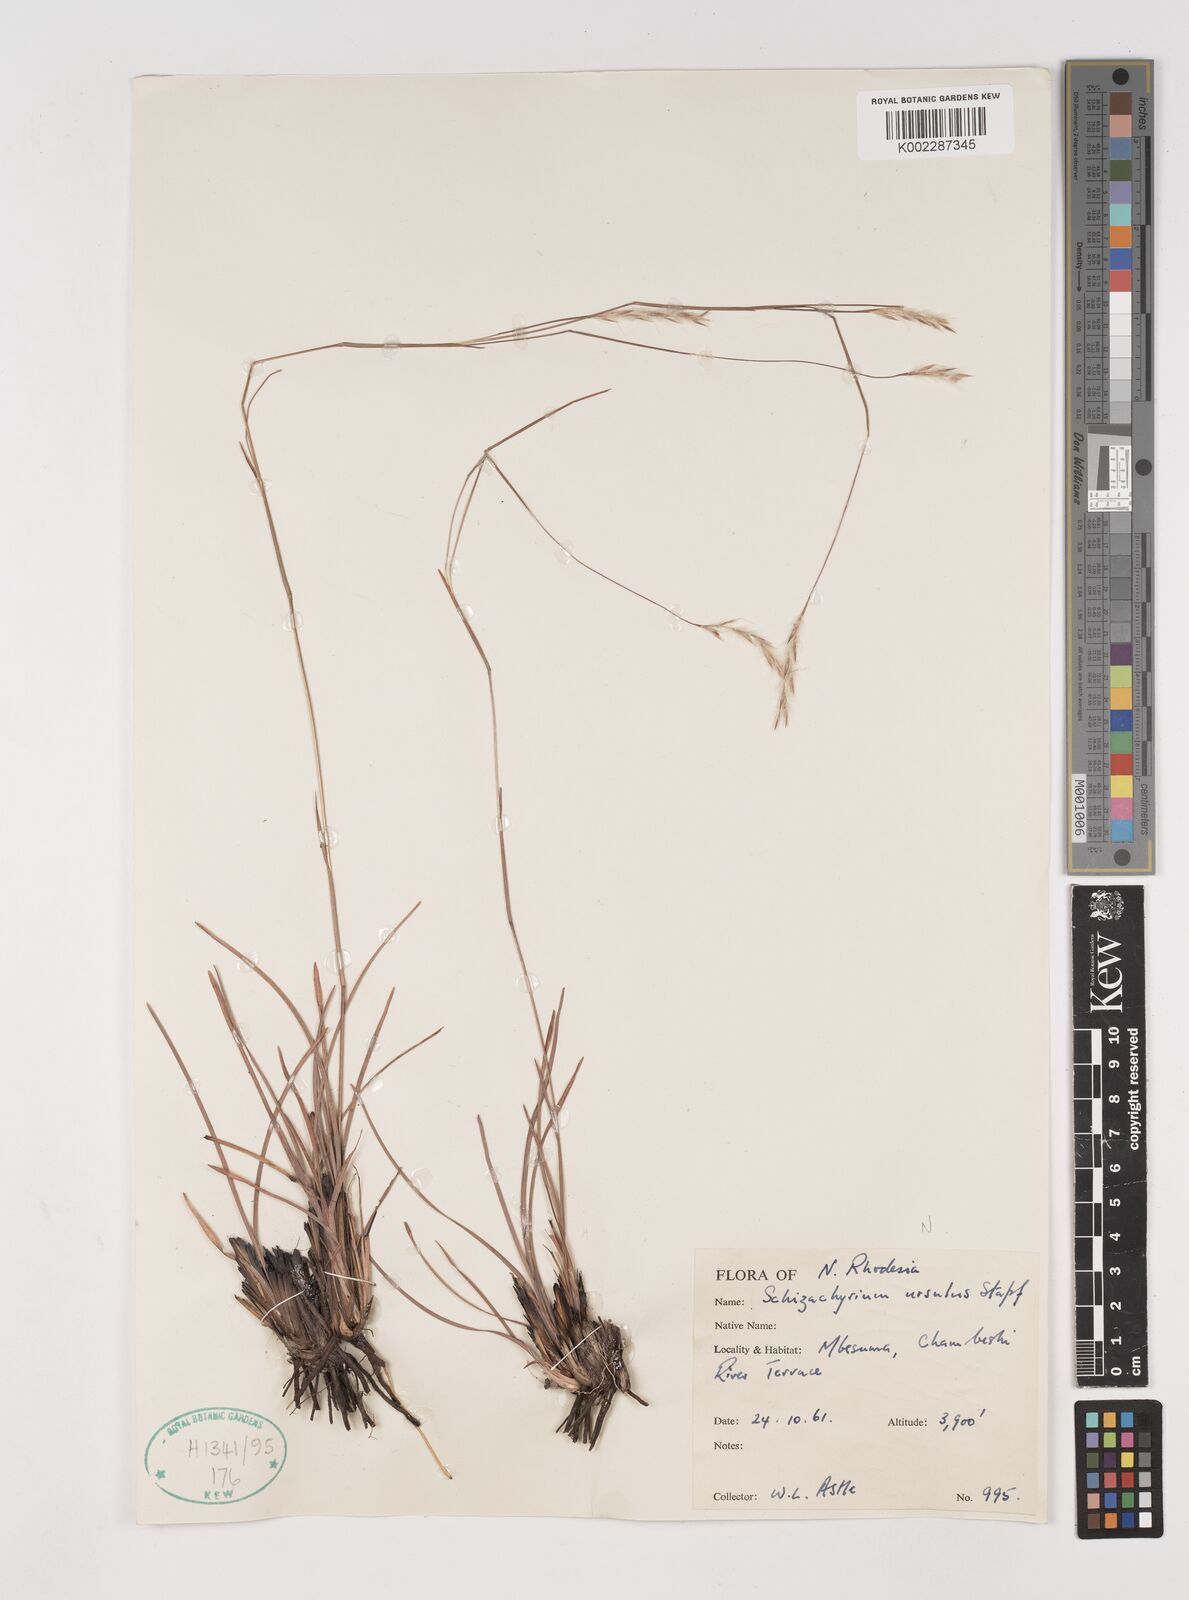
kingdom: Plantae
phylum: Tracheophyta
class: Liliopsida
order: Poales
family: Poaceae
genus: Andropogon
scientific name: Andropogon schweinfurthii
